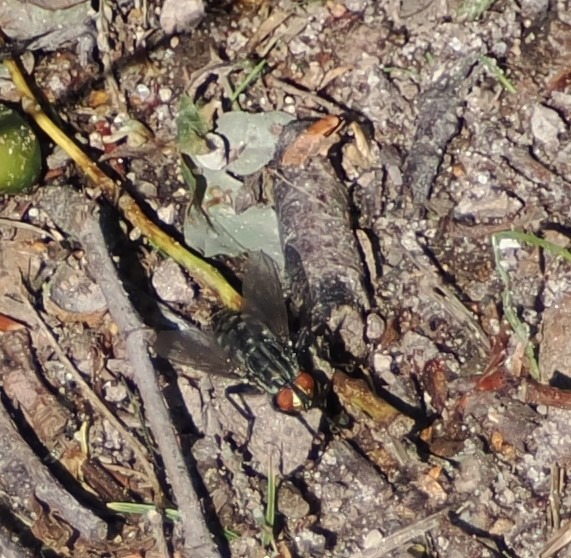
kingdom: Animalia
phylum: Arthropoda
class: Insecta
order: Diptera
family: Sarcophagidae
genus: Sarcophaga
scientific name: Sarcophaga
